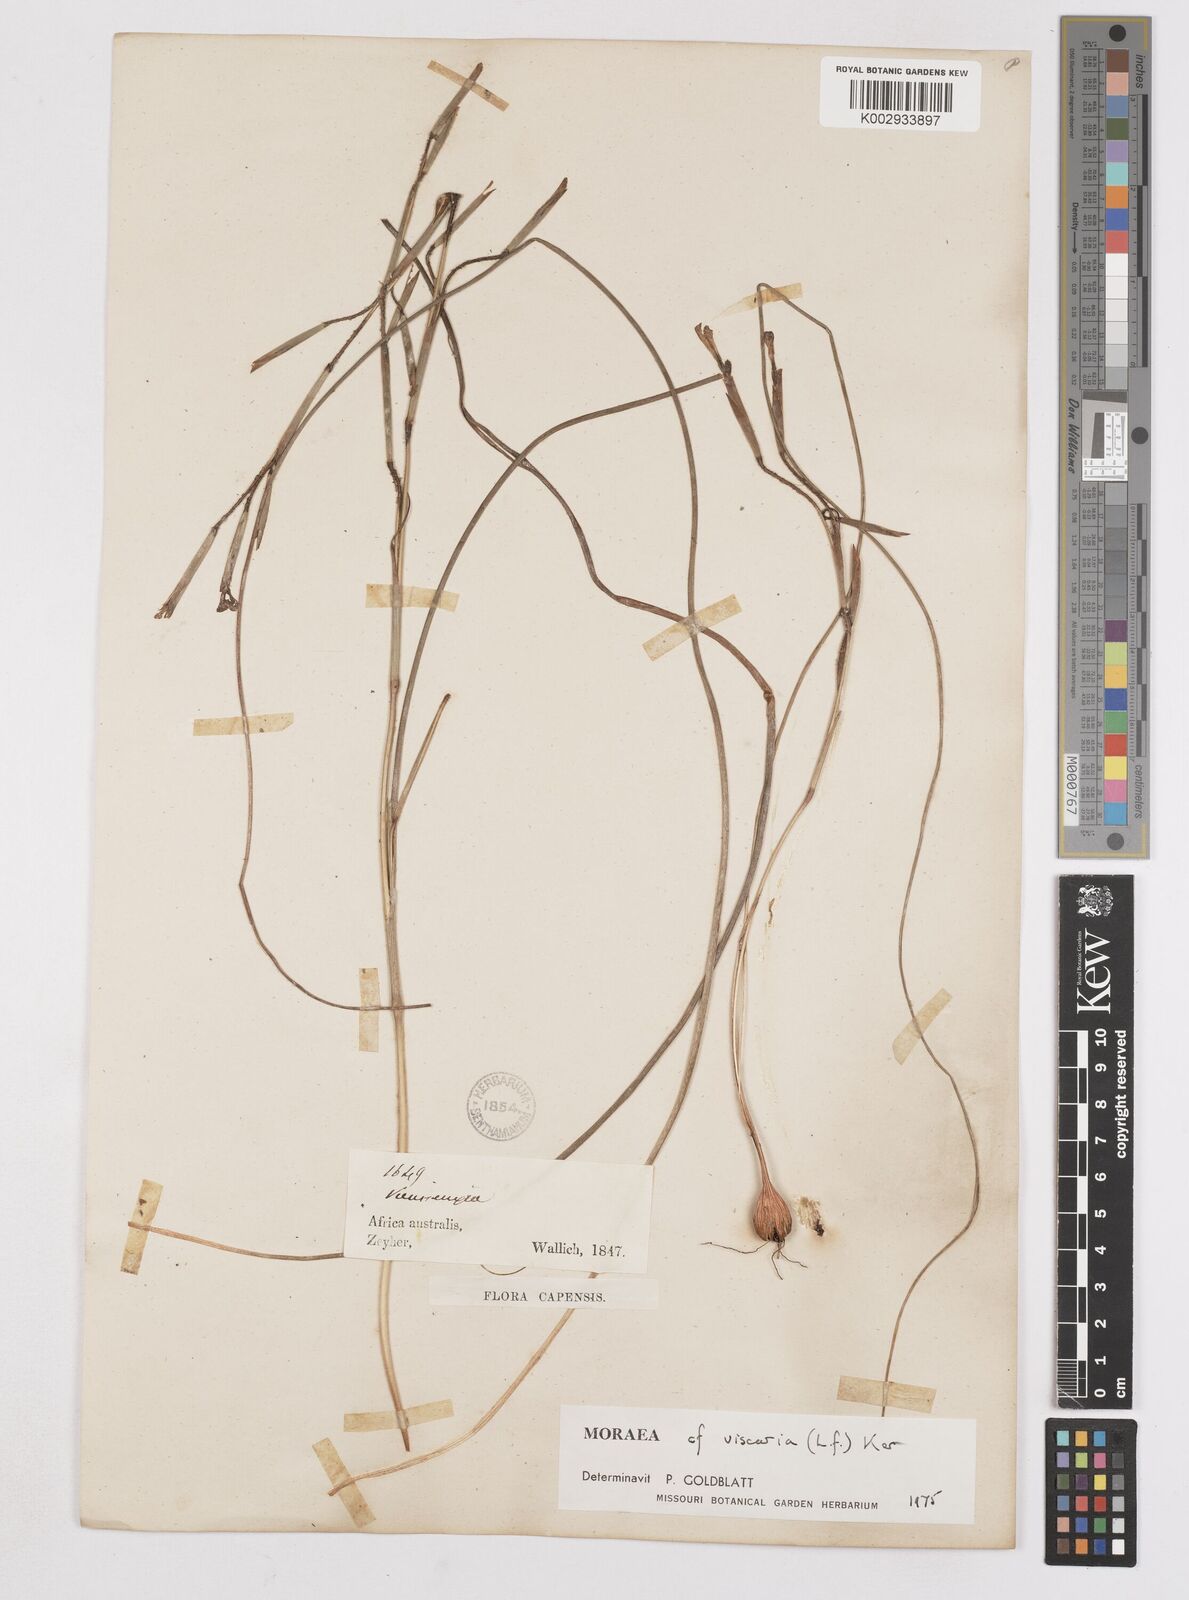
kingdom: Plantae
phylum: Tracheophyta
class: Liliopsida
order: Asparagales
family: Iridaceae
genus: Moraea
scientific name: Moraea viscaria
